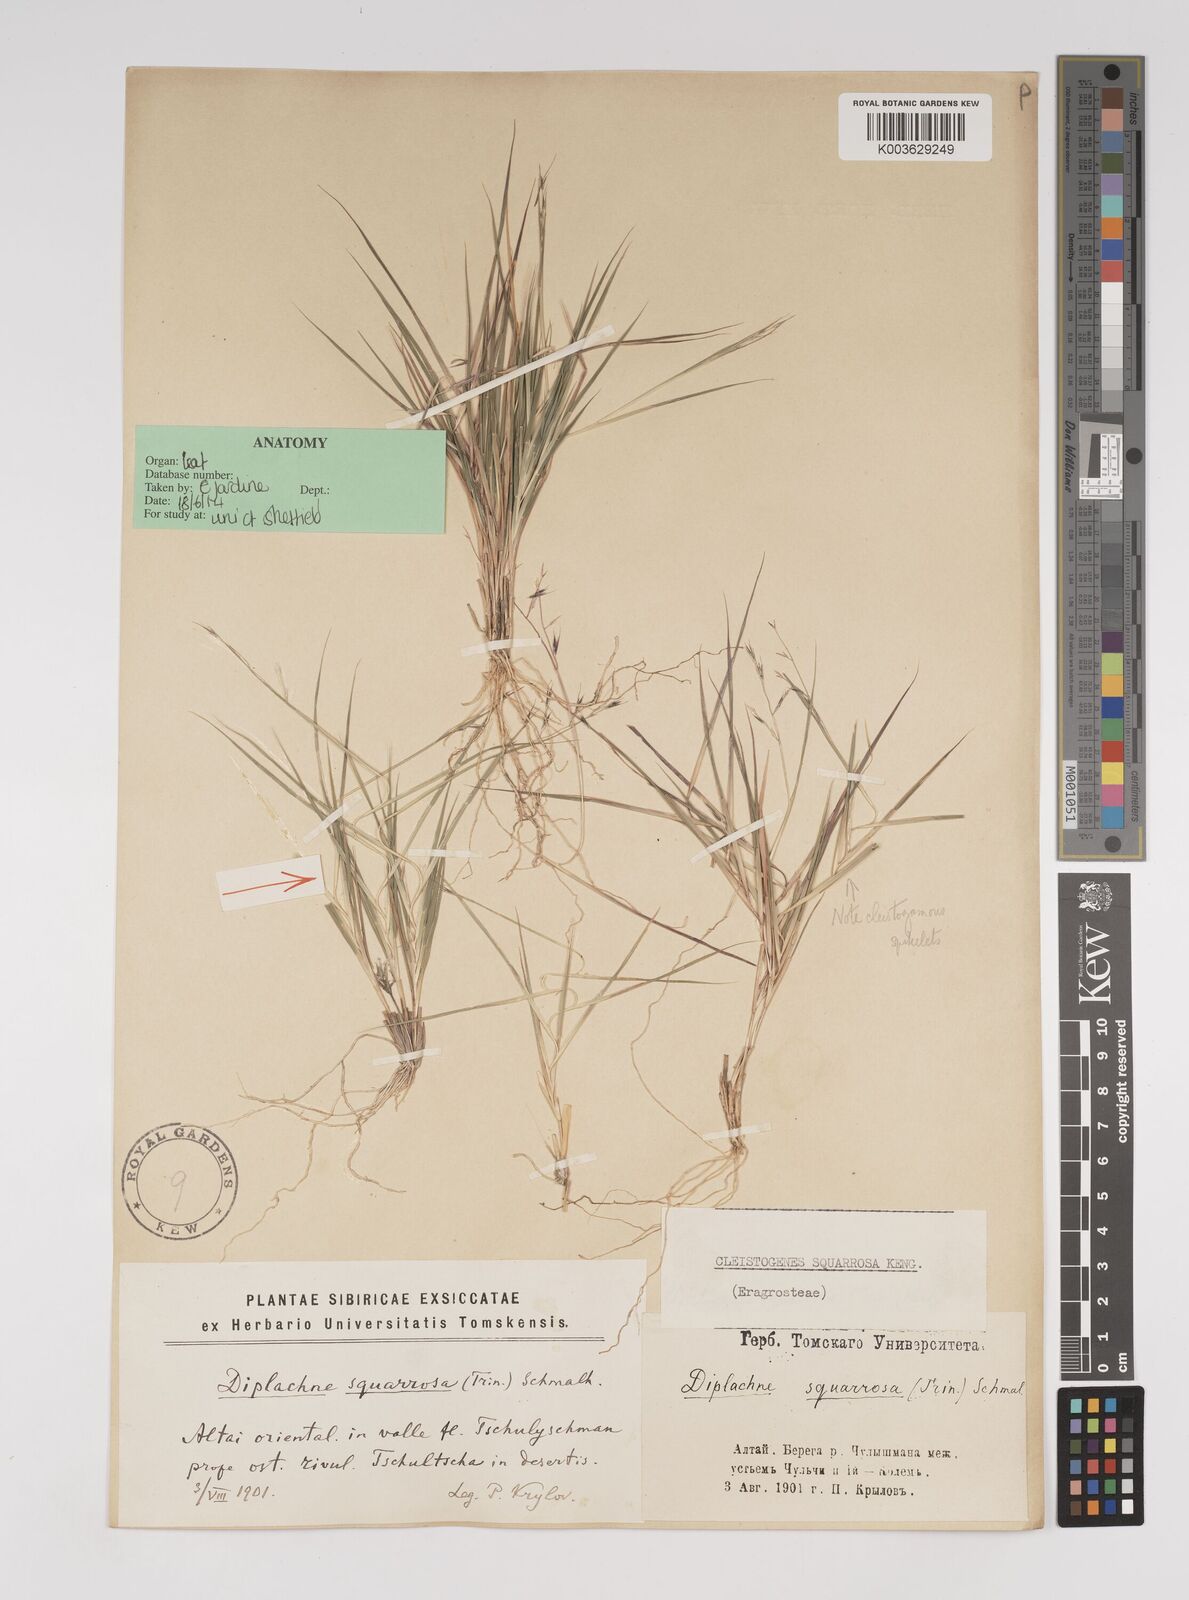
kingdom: Plantae
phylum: Tracheophyta
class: Liliopsida
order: Poales
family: Poaceae
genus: Cleistogenes
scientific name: Cleistogenes squarrosa
